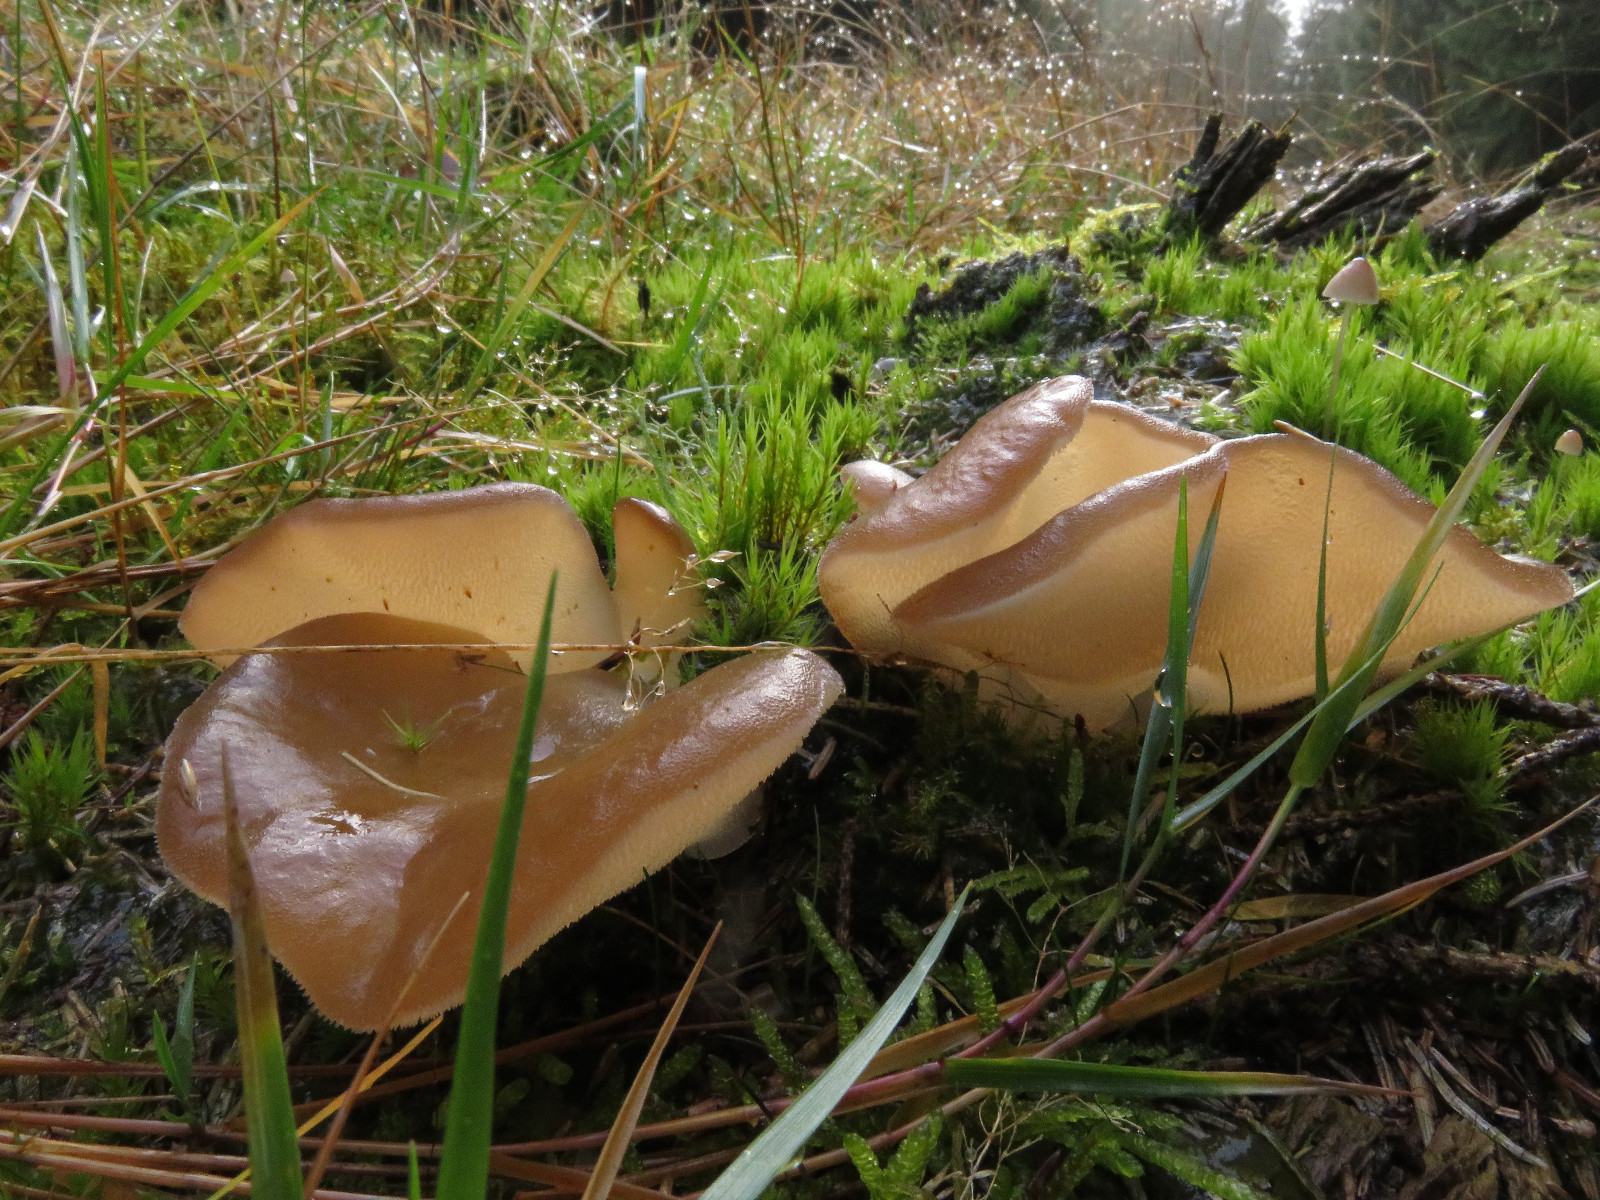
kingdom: Fungi
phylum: Basidiomycota
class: Agaricomycetes
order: Auriculariales
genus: Pseudohydnum
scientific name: Pseudohydnum gelatinosum
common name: bævretand
